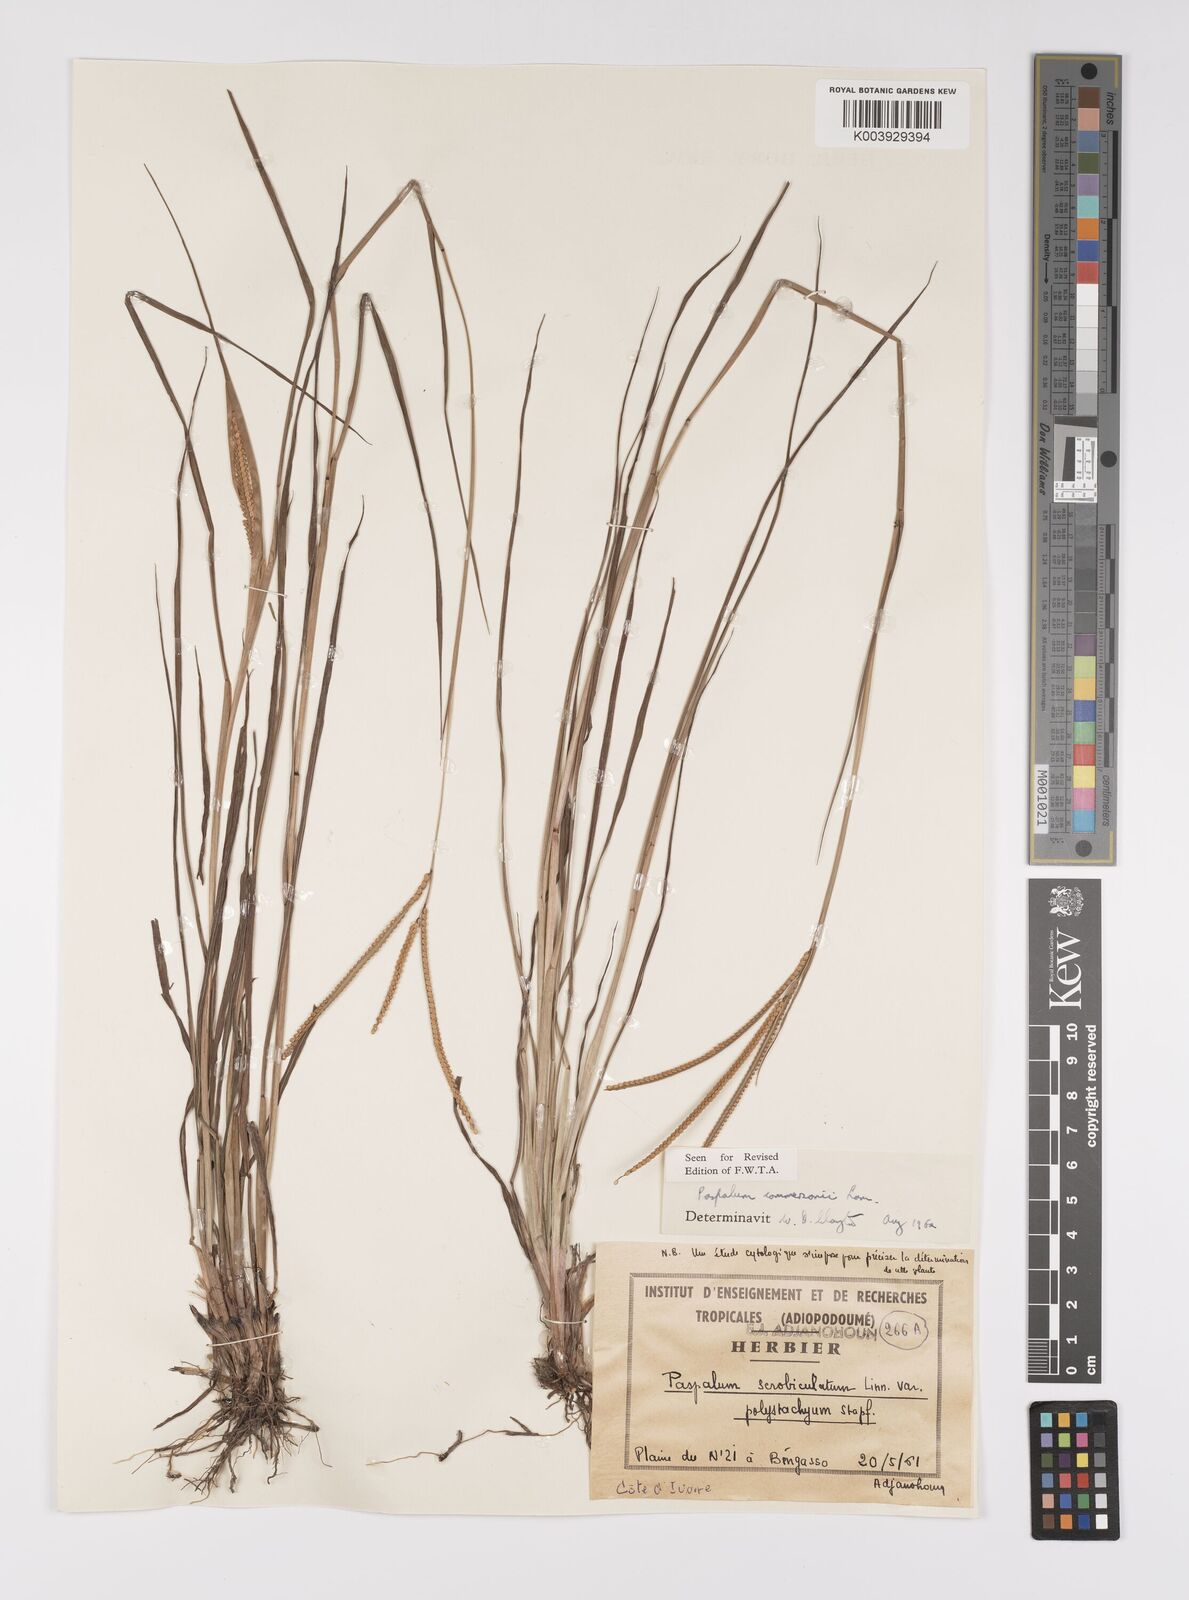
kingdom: Plantae
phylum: Tracheophyta
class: Liliopsida
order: Poales
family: Poaceae
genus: Paspalum
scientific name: Paspalum scrobiculatum
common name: Kodo millet
